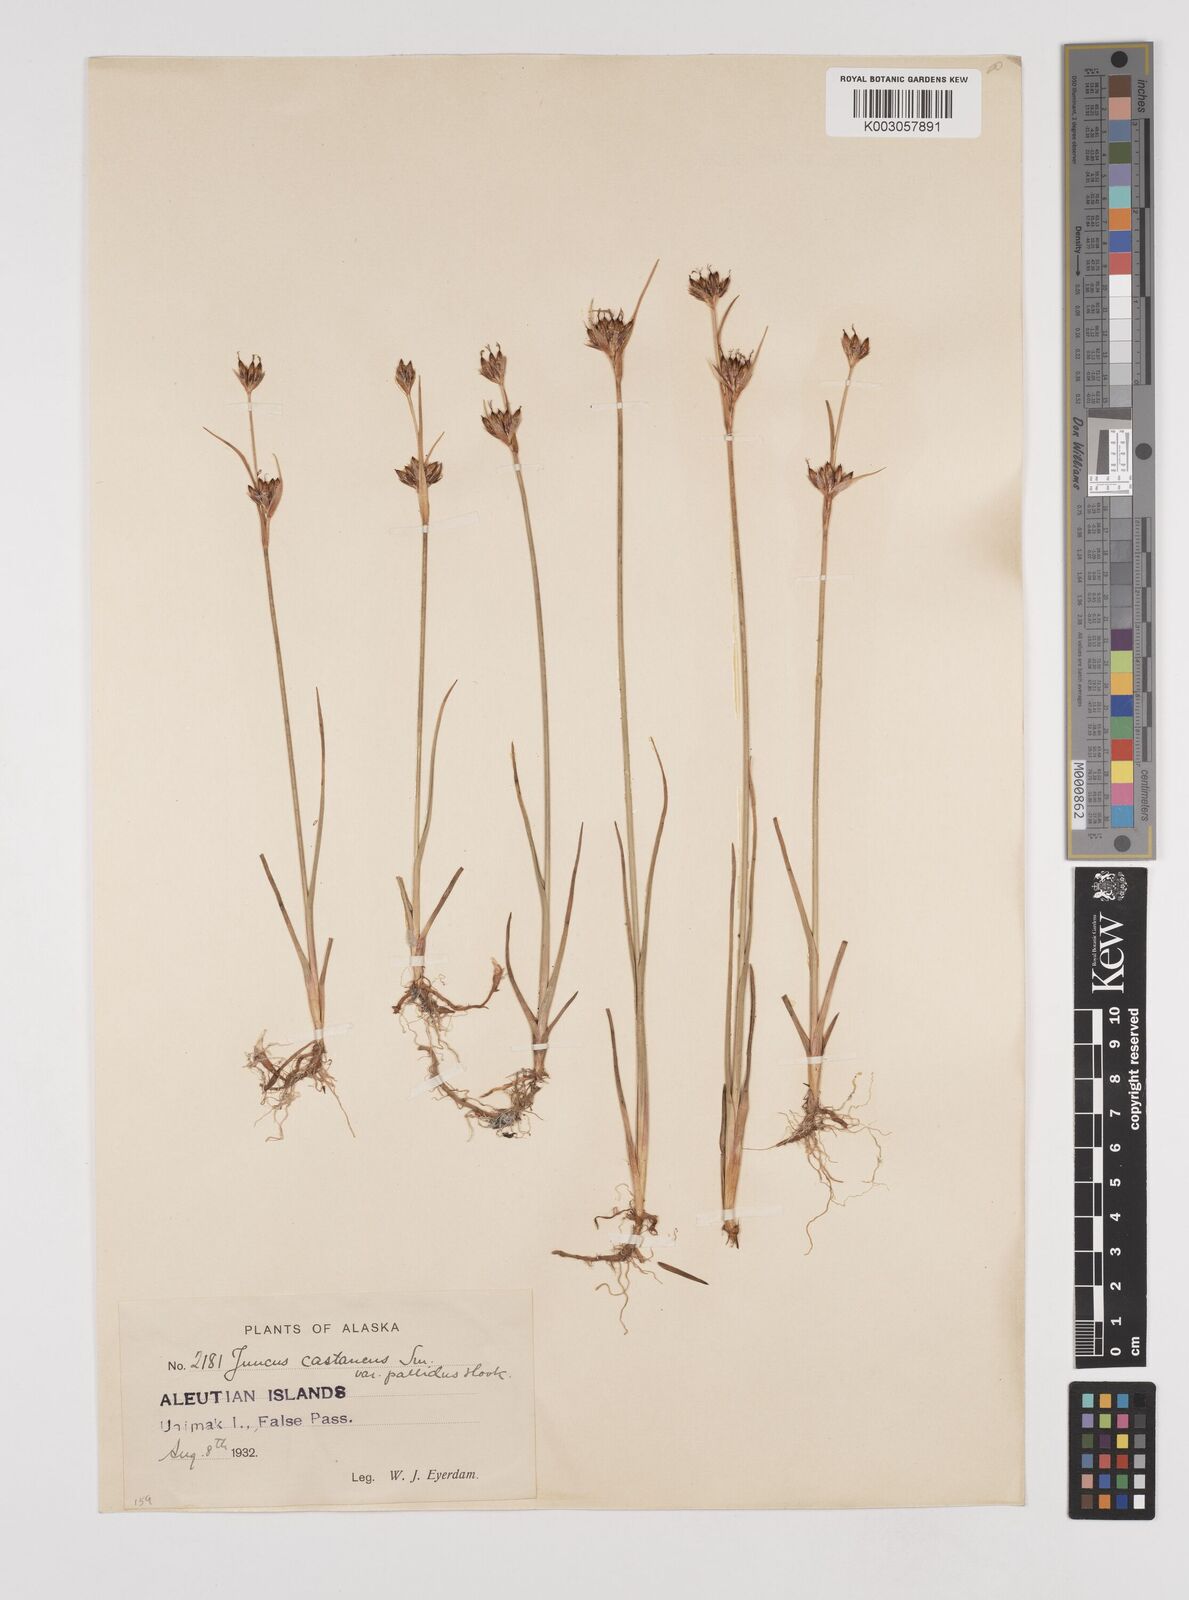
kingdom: Plantae
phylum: Tracheophyta
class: Liliopsida
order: Poales
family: Juncaceae
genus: Juncus
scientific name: Juncus castaneus
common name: Chestnut rush
